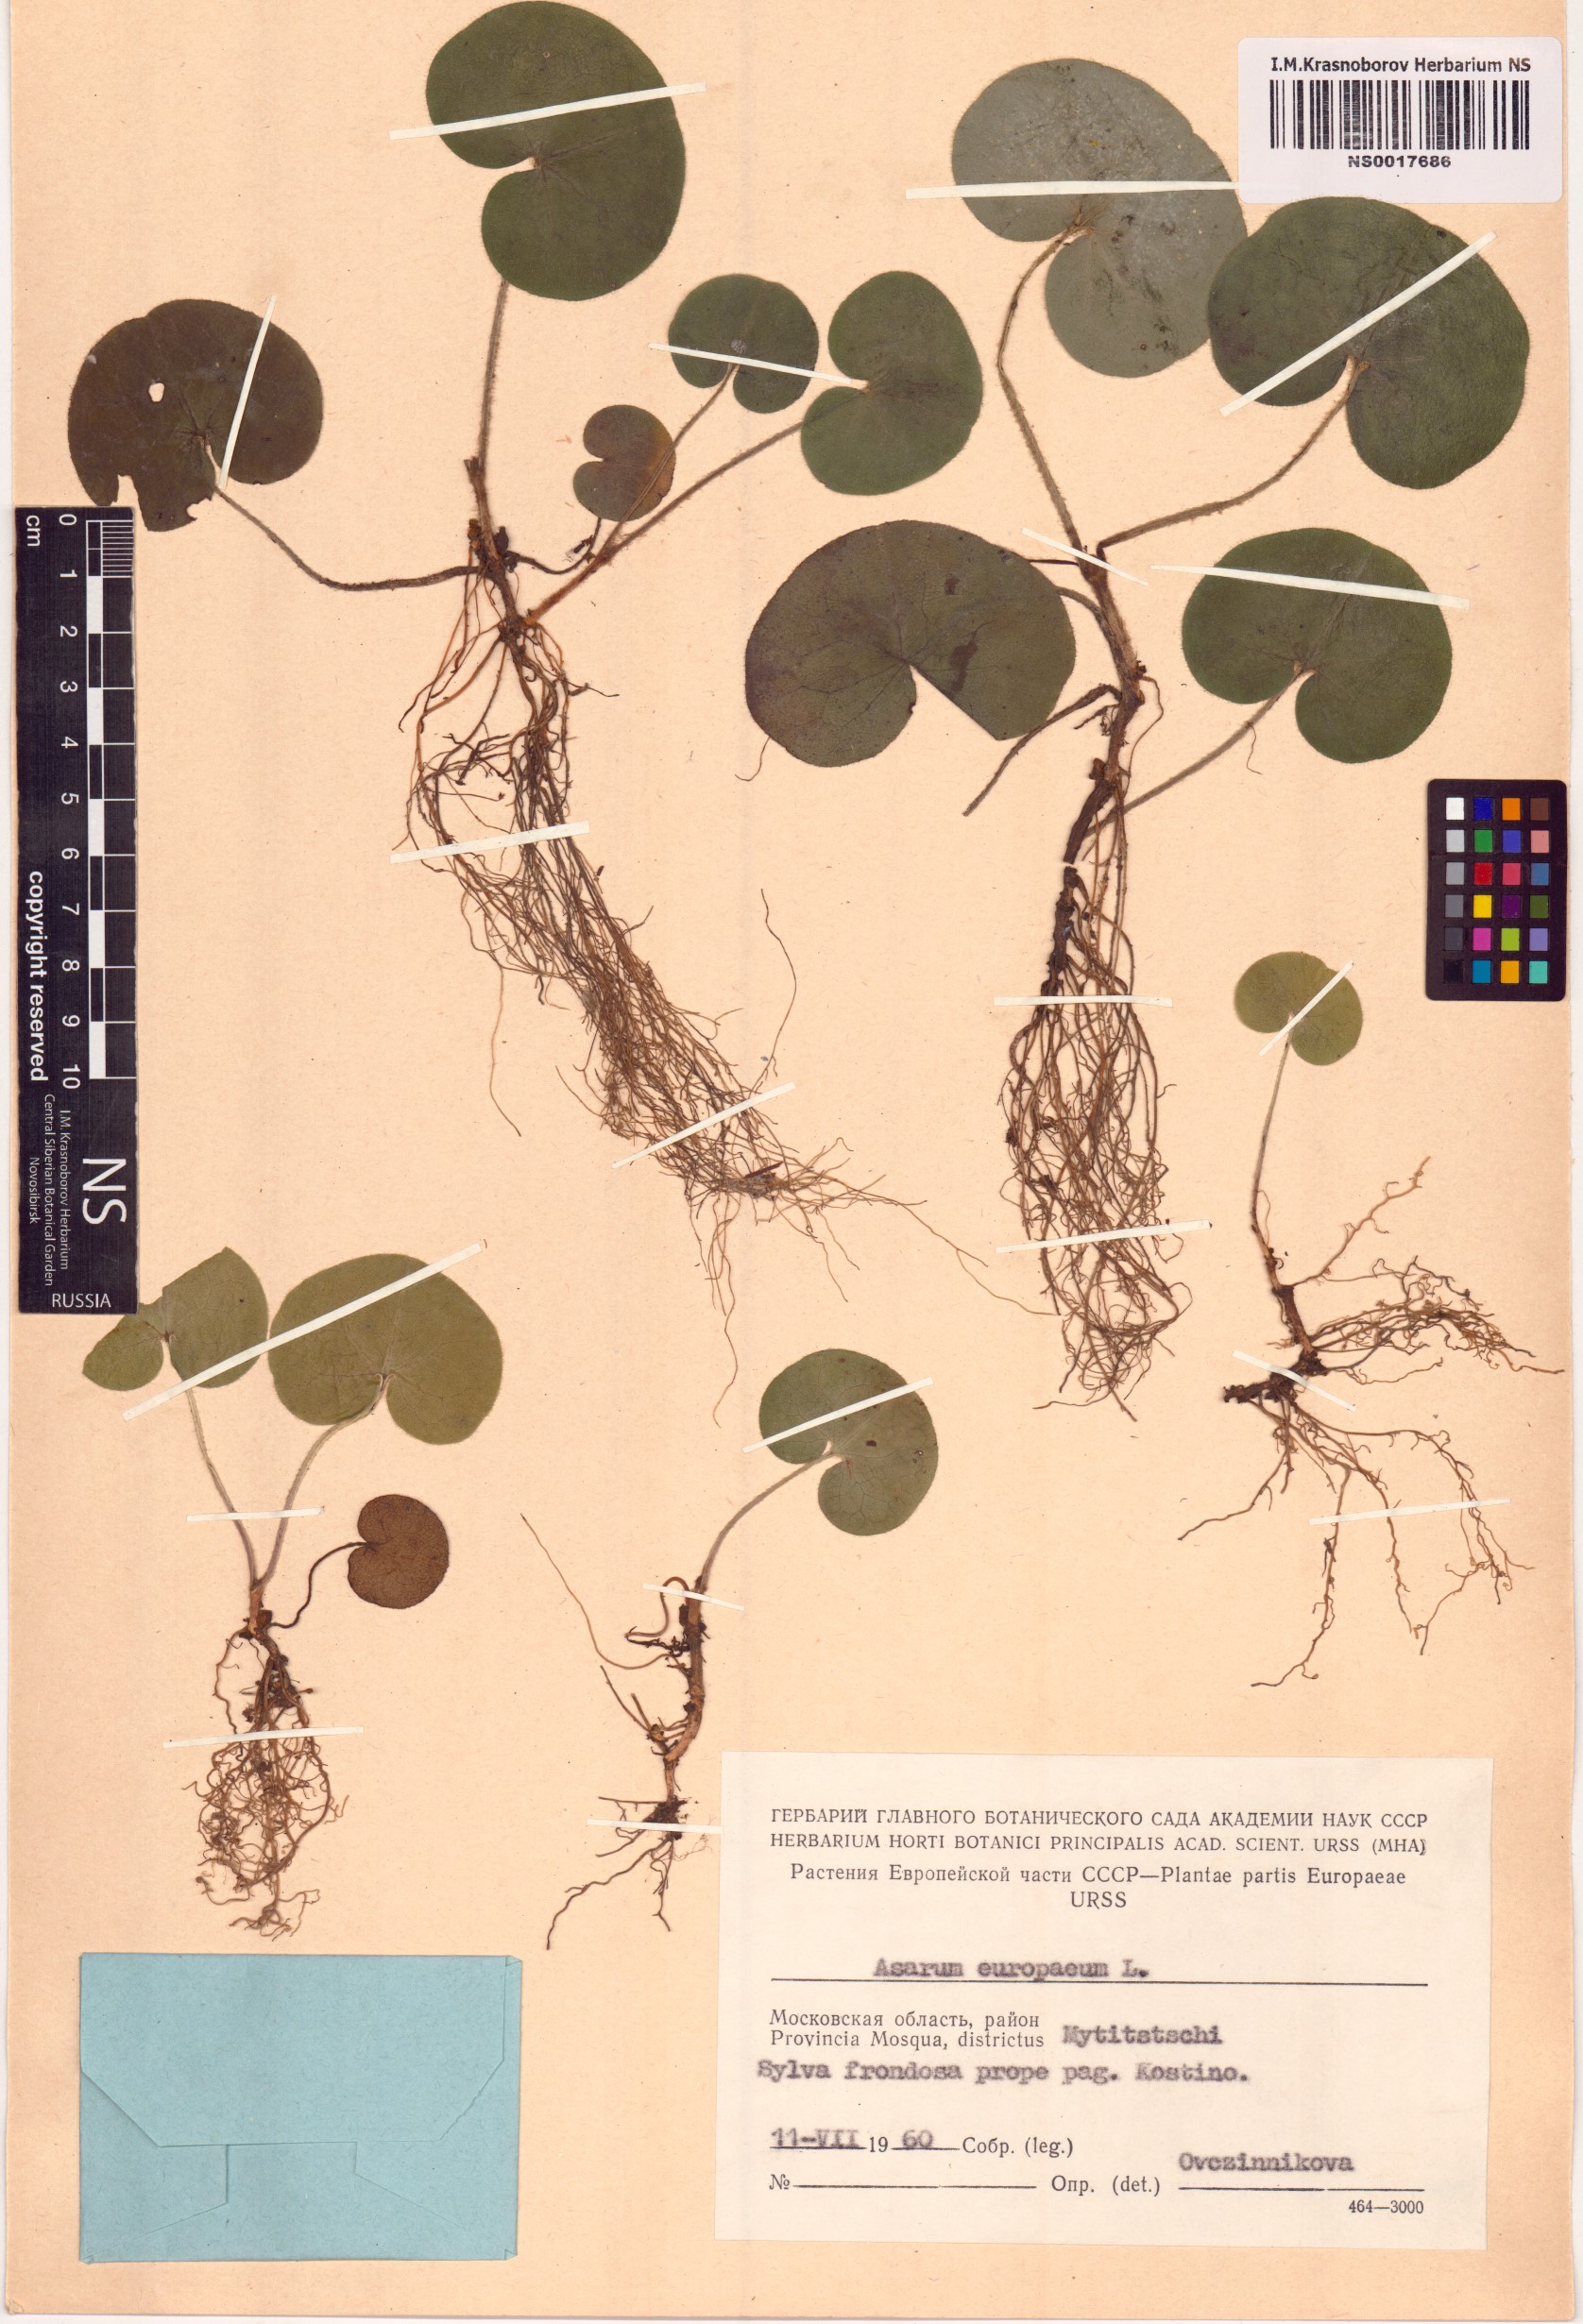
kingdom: Plantae
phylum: Tracheophyta
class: Magnoliopsida
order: Piperales
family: Aristolochiaceae
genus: Asarum
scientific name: Asarum europaeum
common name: Asarabacca
